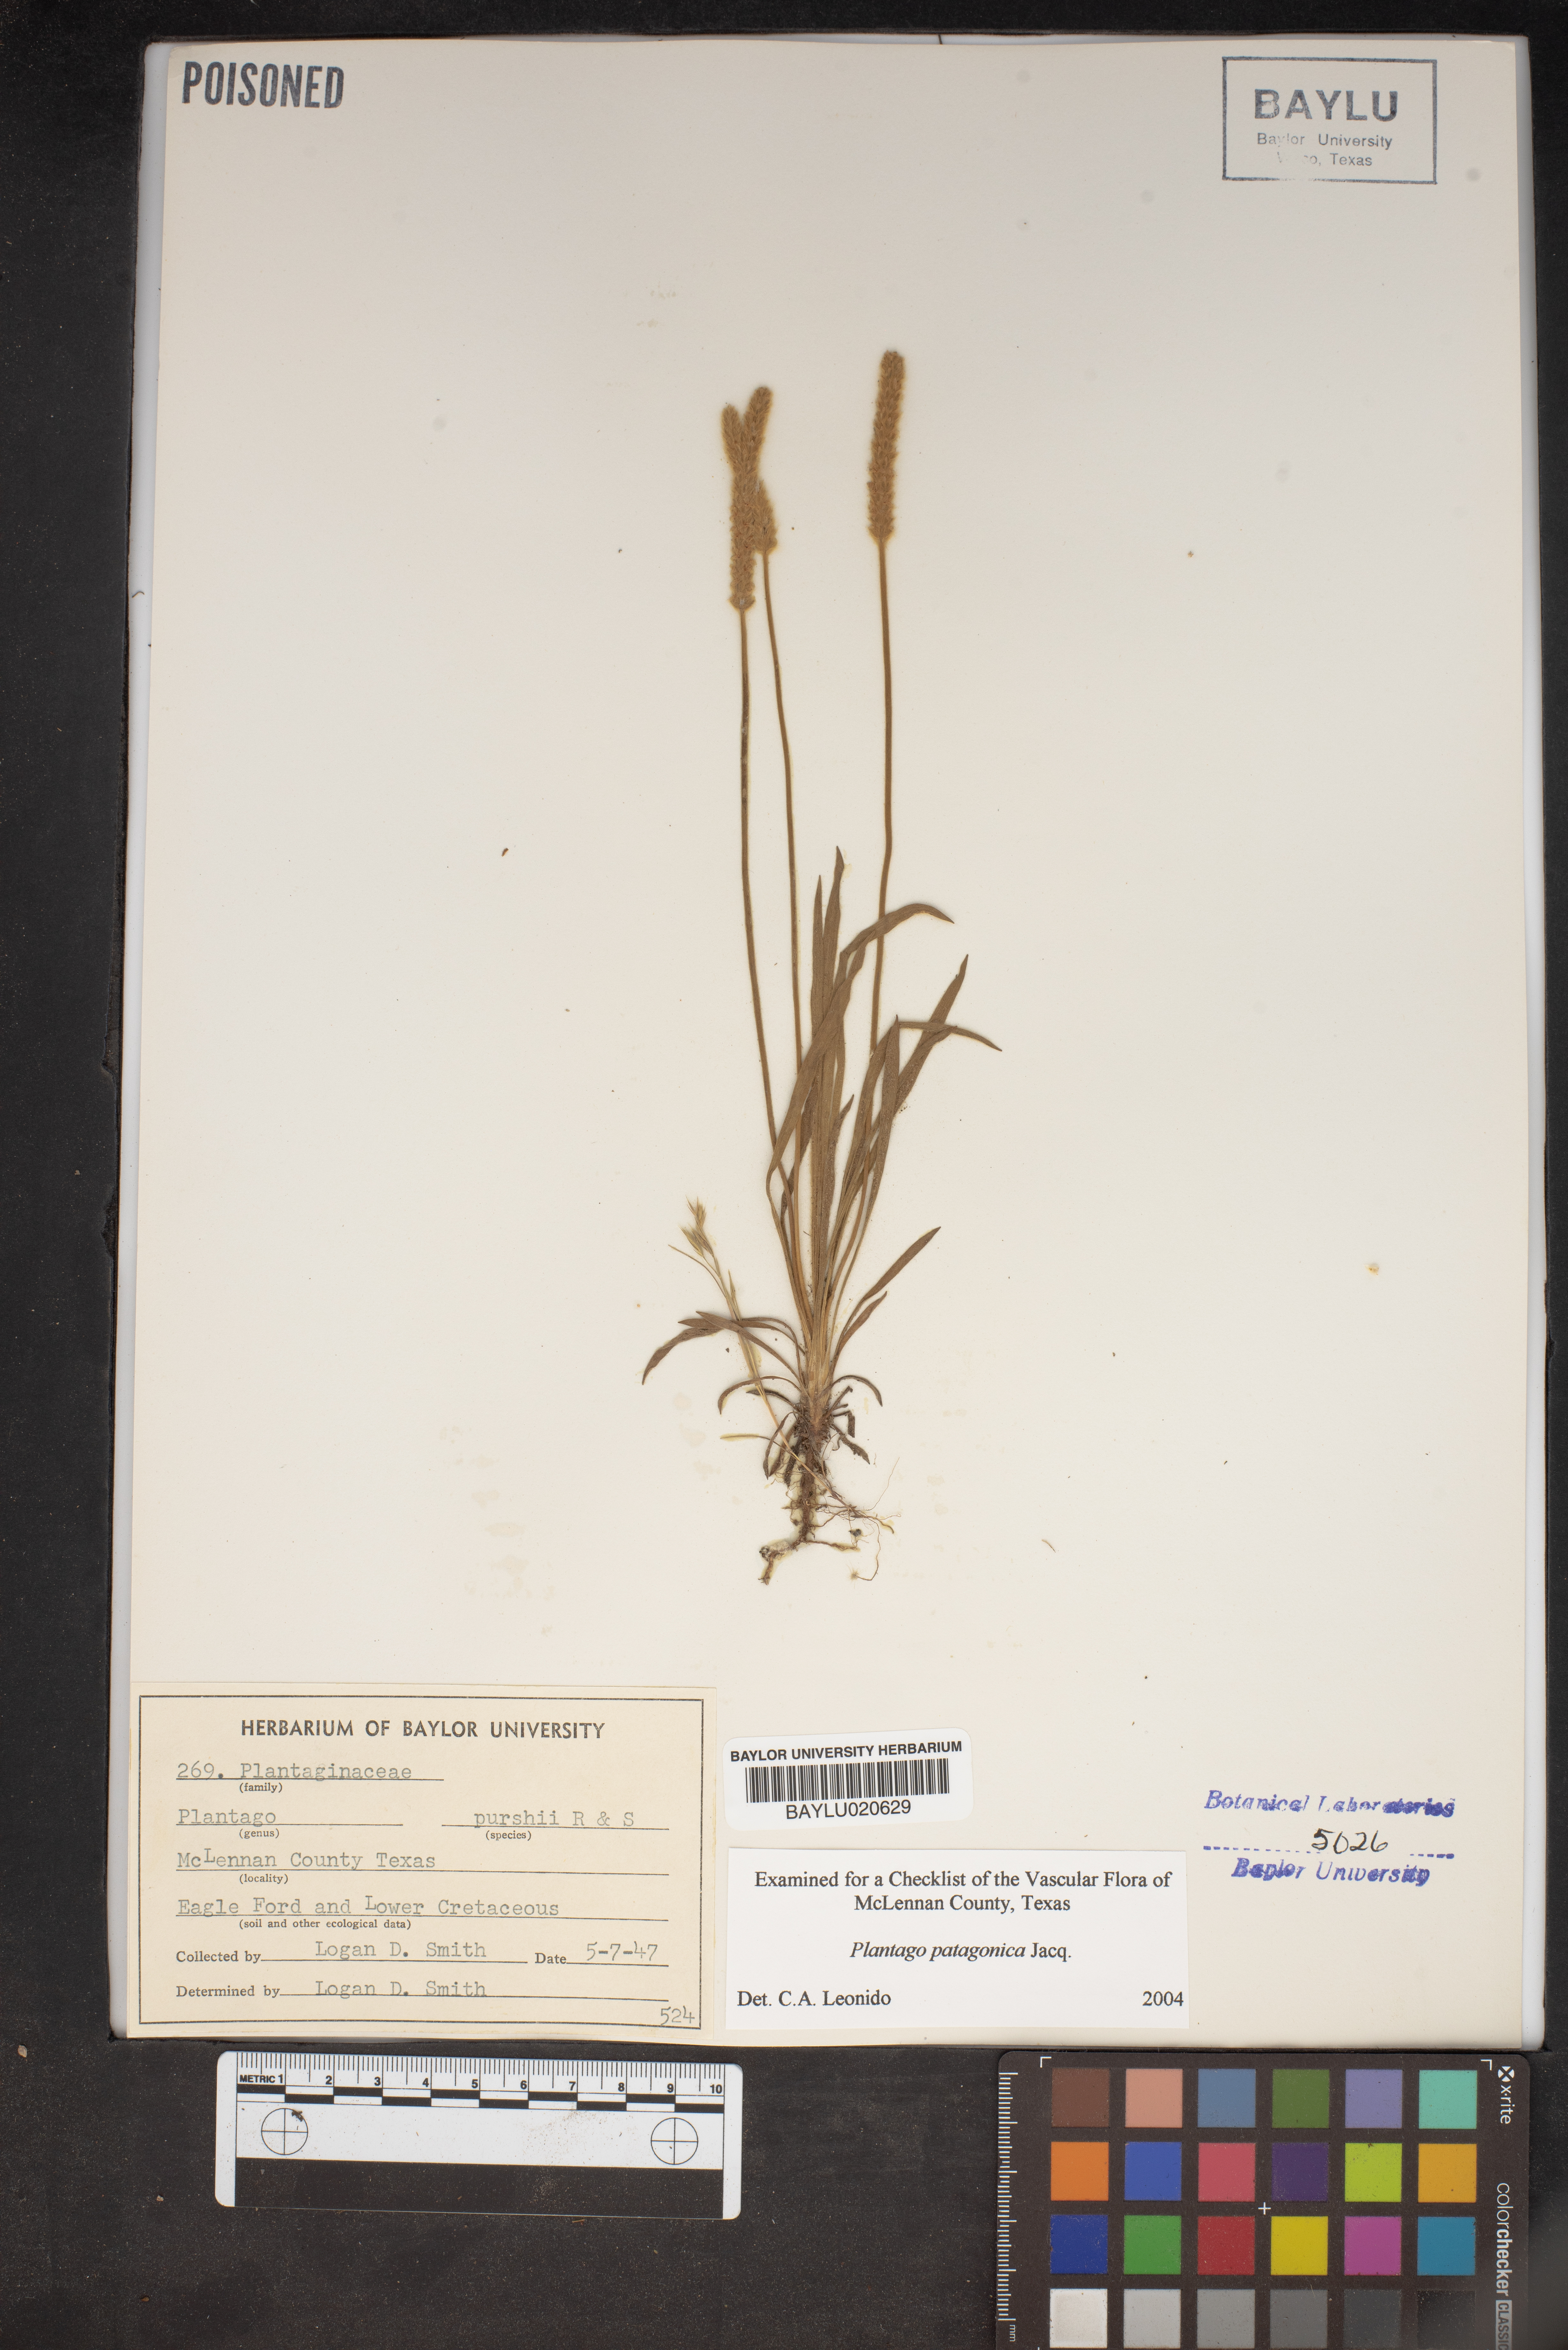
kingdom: Plantae
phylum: Tracheophyta
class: Magnoliopsida
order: Lamiales
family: Plantaginaceae
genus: Plantago
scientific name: Plantago patagonica
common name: Patagonia indian-wheat
